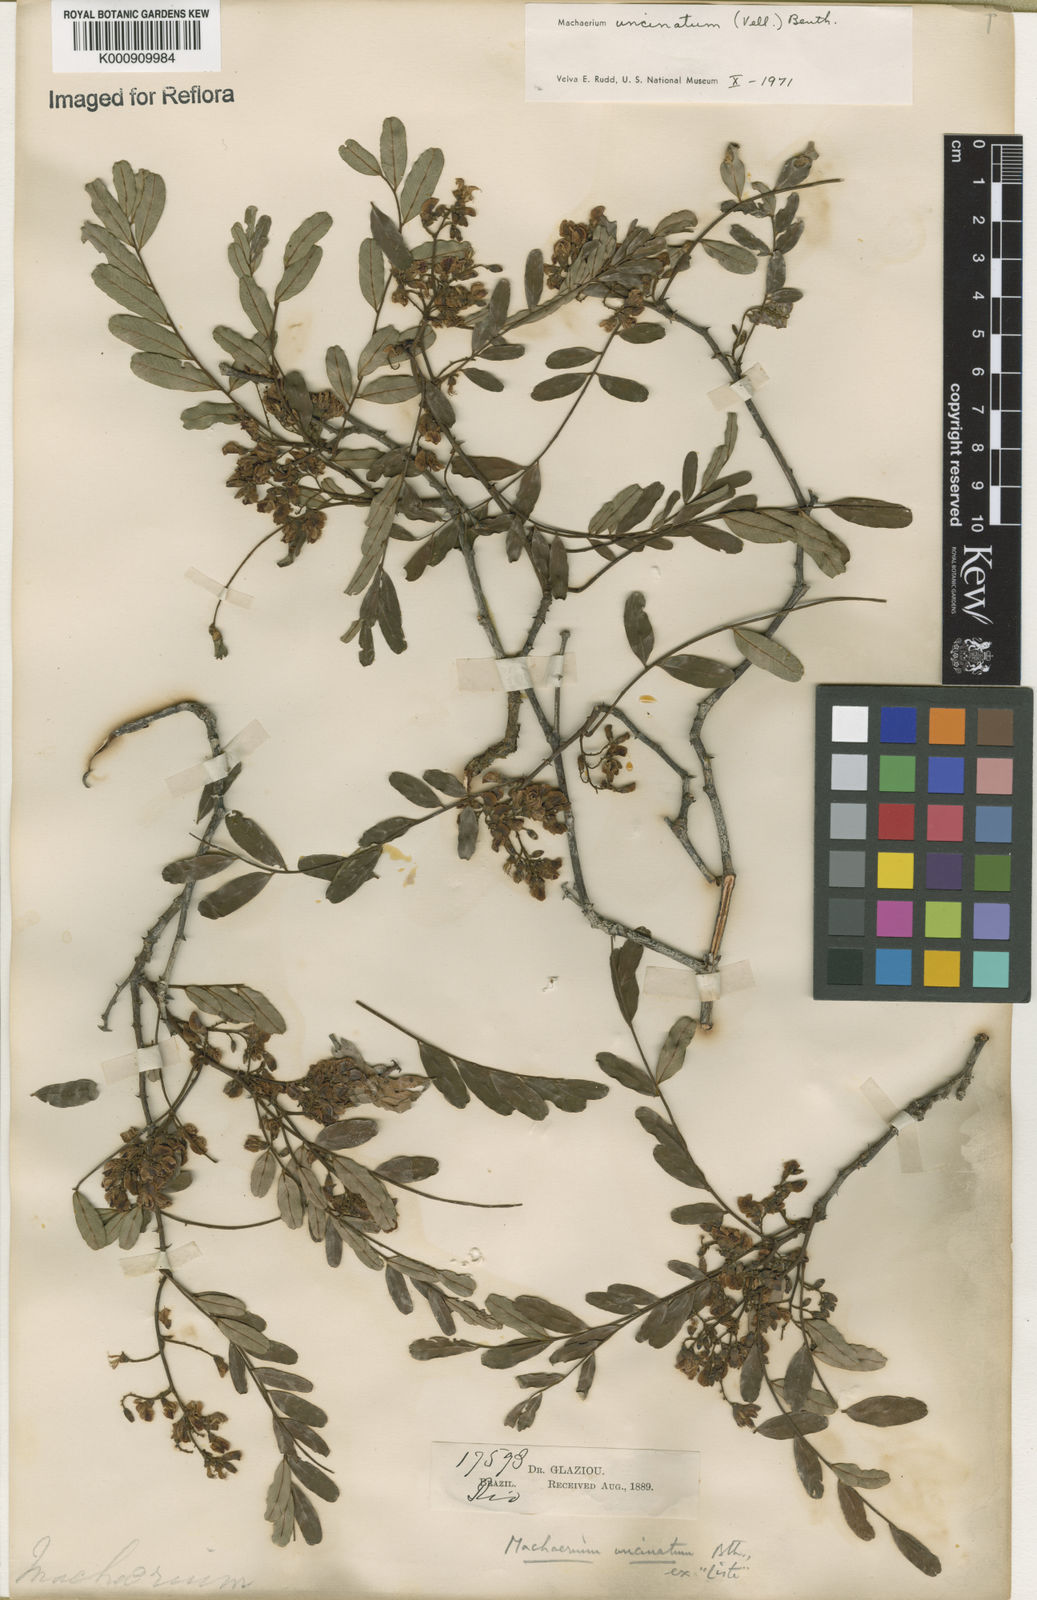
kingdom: Plantae
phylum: Tracheophyta
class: Magnoliopsida
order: Fabales
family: Fabaceae
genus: Machaerium
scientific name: Machaerium uncinatum
